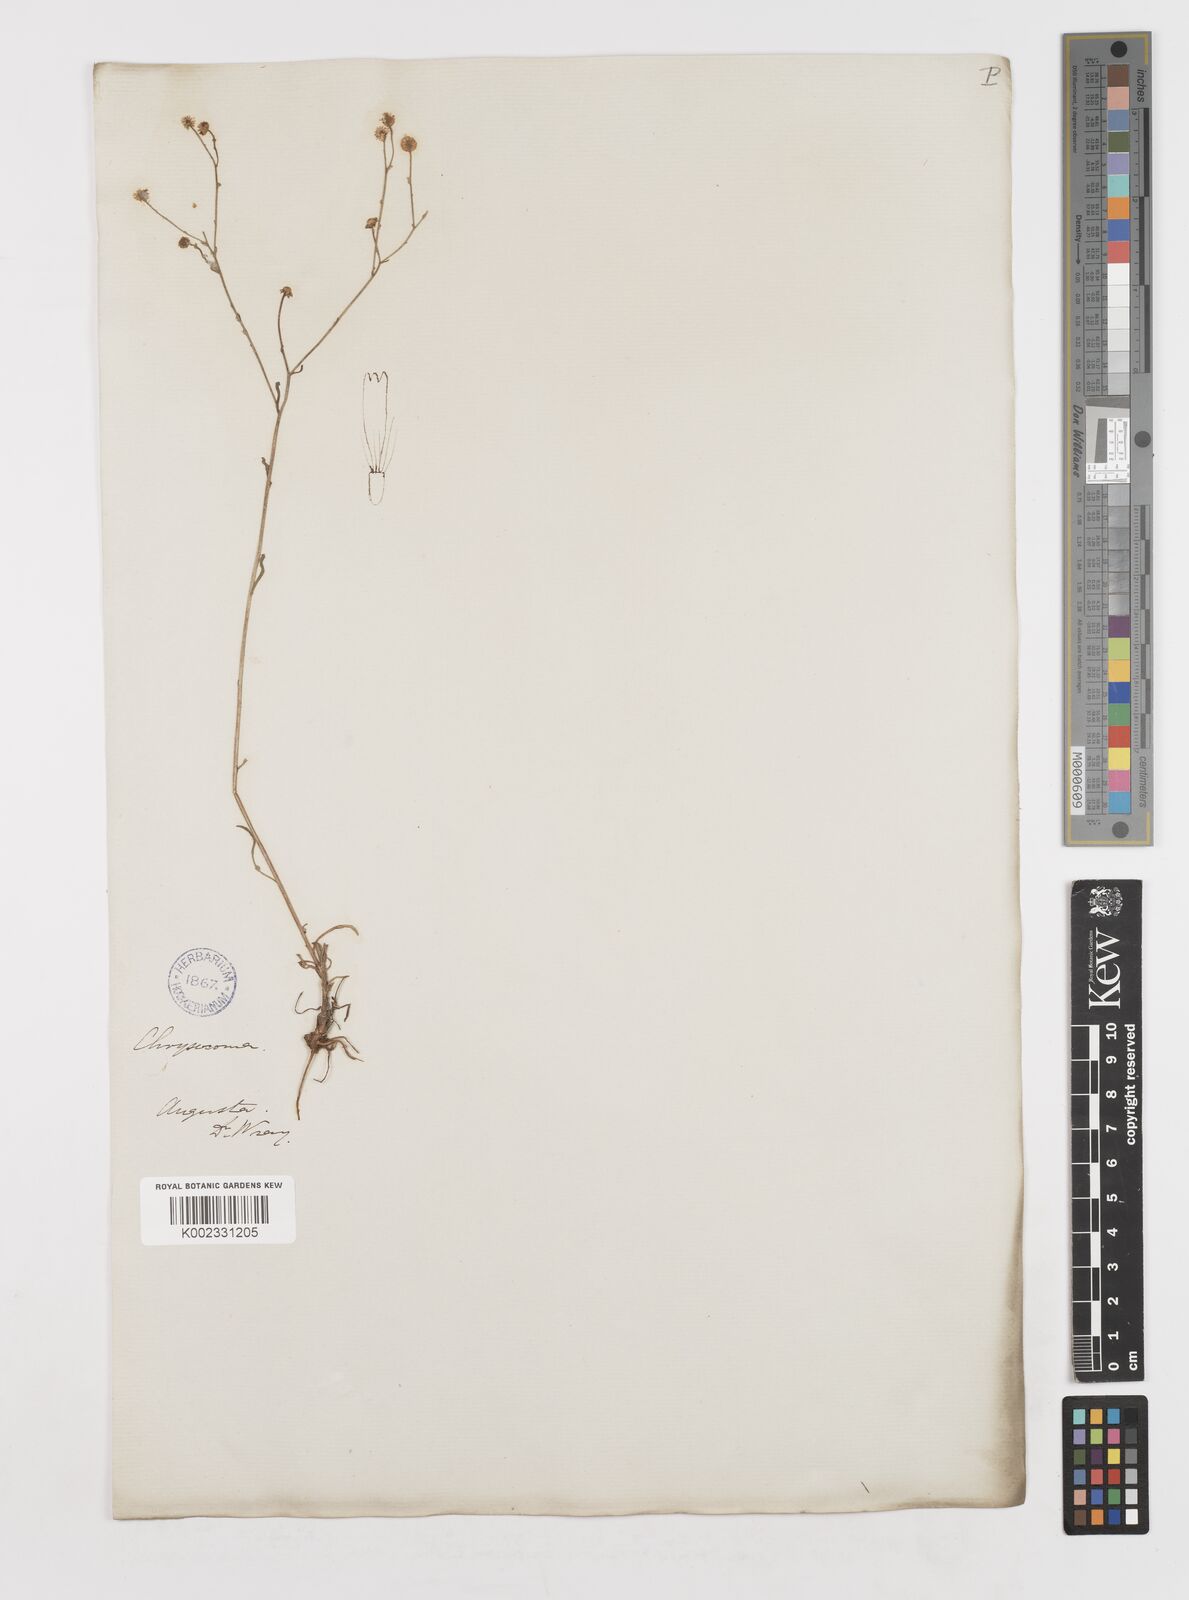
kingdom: Plantae
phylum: Tracheophyta
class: Magnoliopsida
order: Asterales
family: Asteraceae
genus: Erigeron
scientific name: Erigeron
